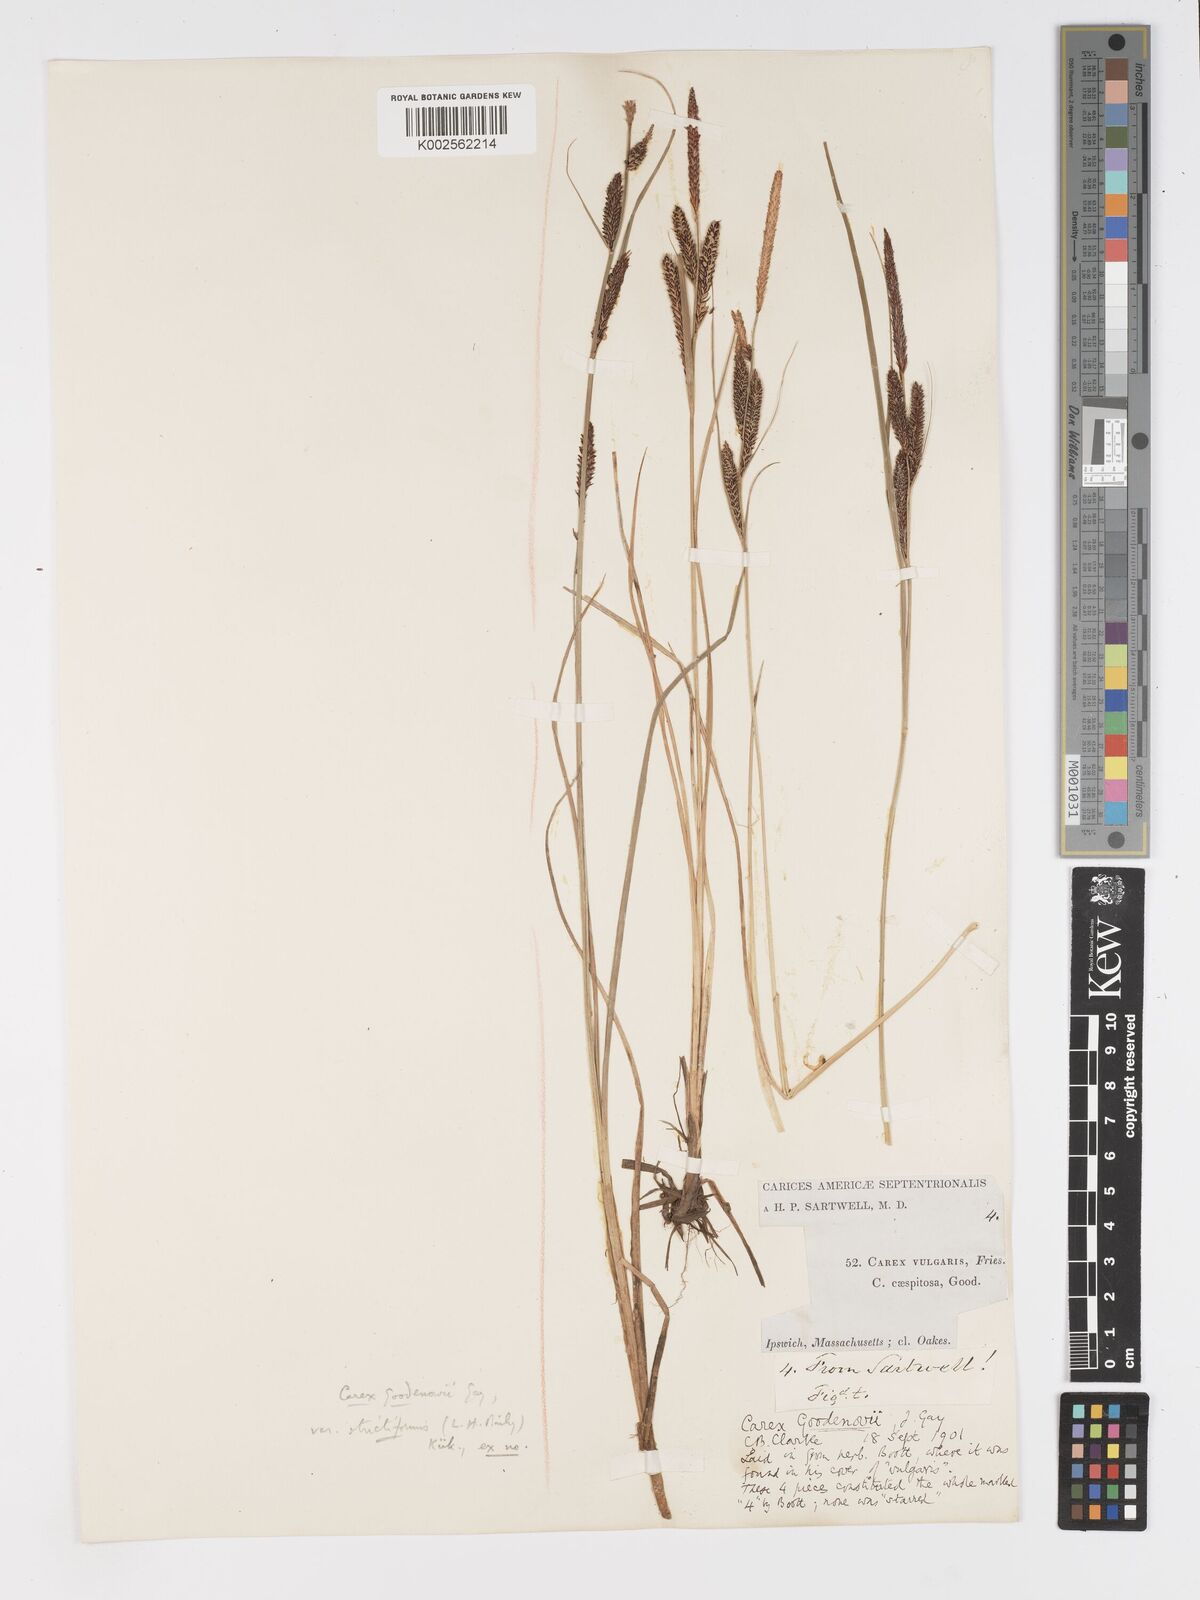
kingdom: Plantae
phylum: Tracheophyta
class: Liliopsida
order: Poales
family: Cyperaceae
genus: Carex
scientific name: Carex nigra
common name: Common sedge
